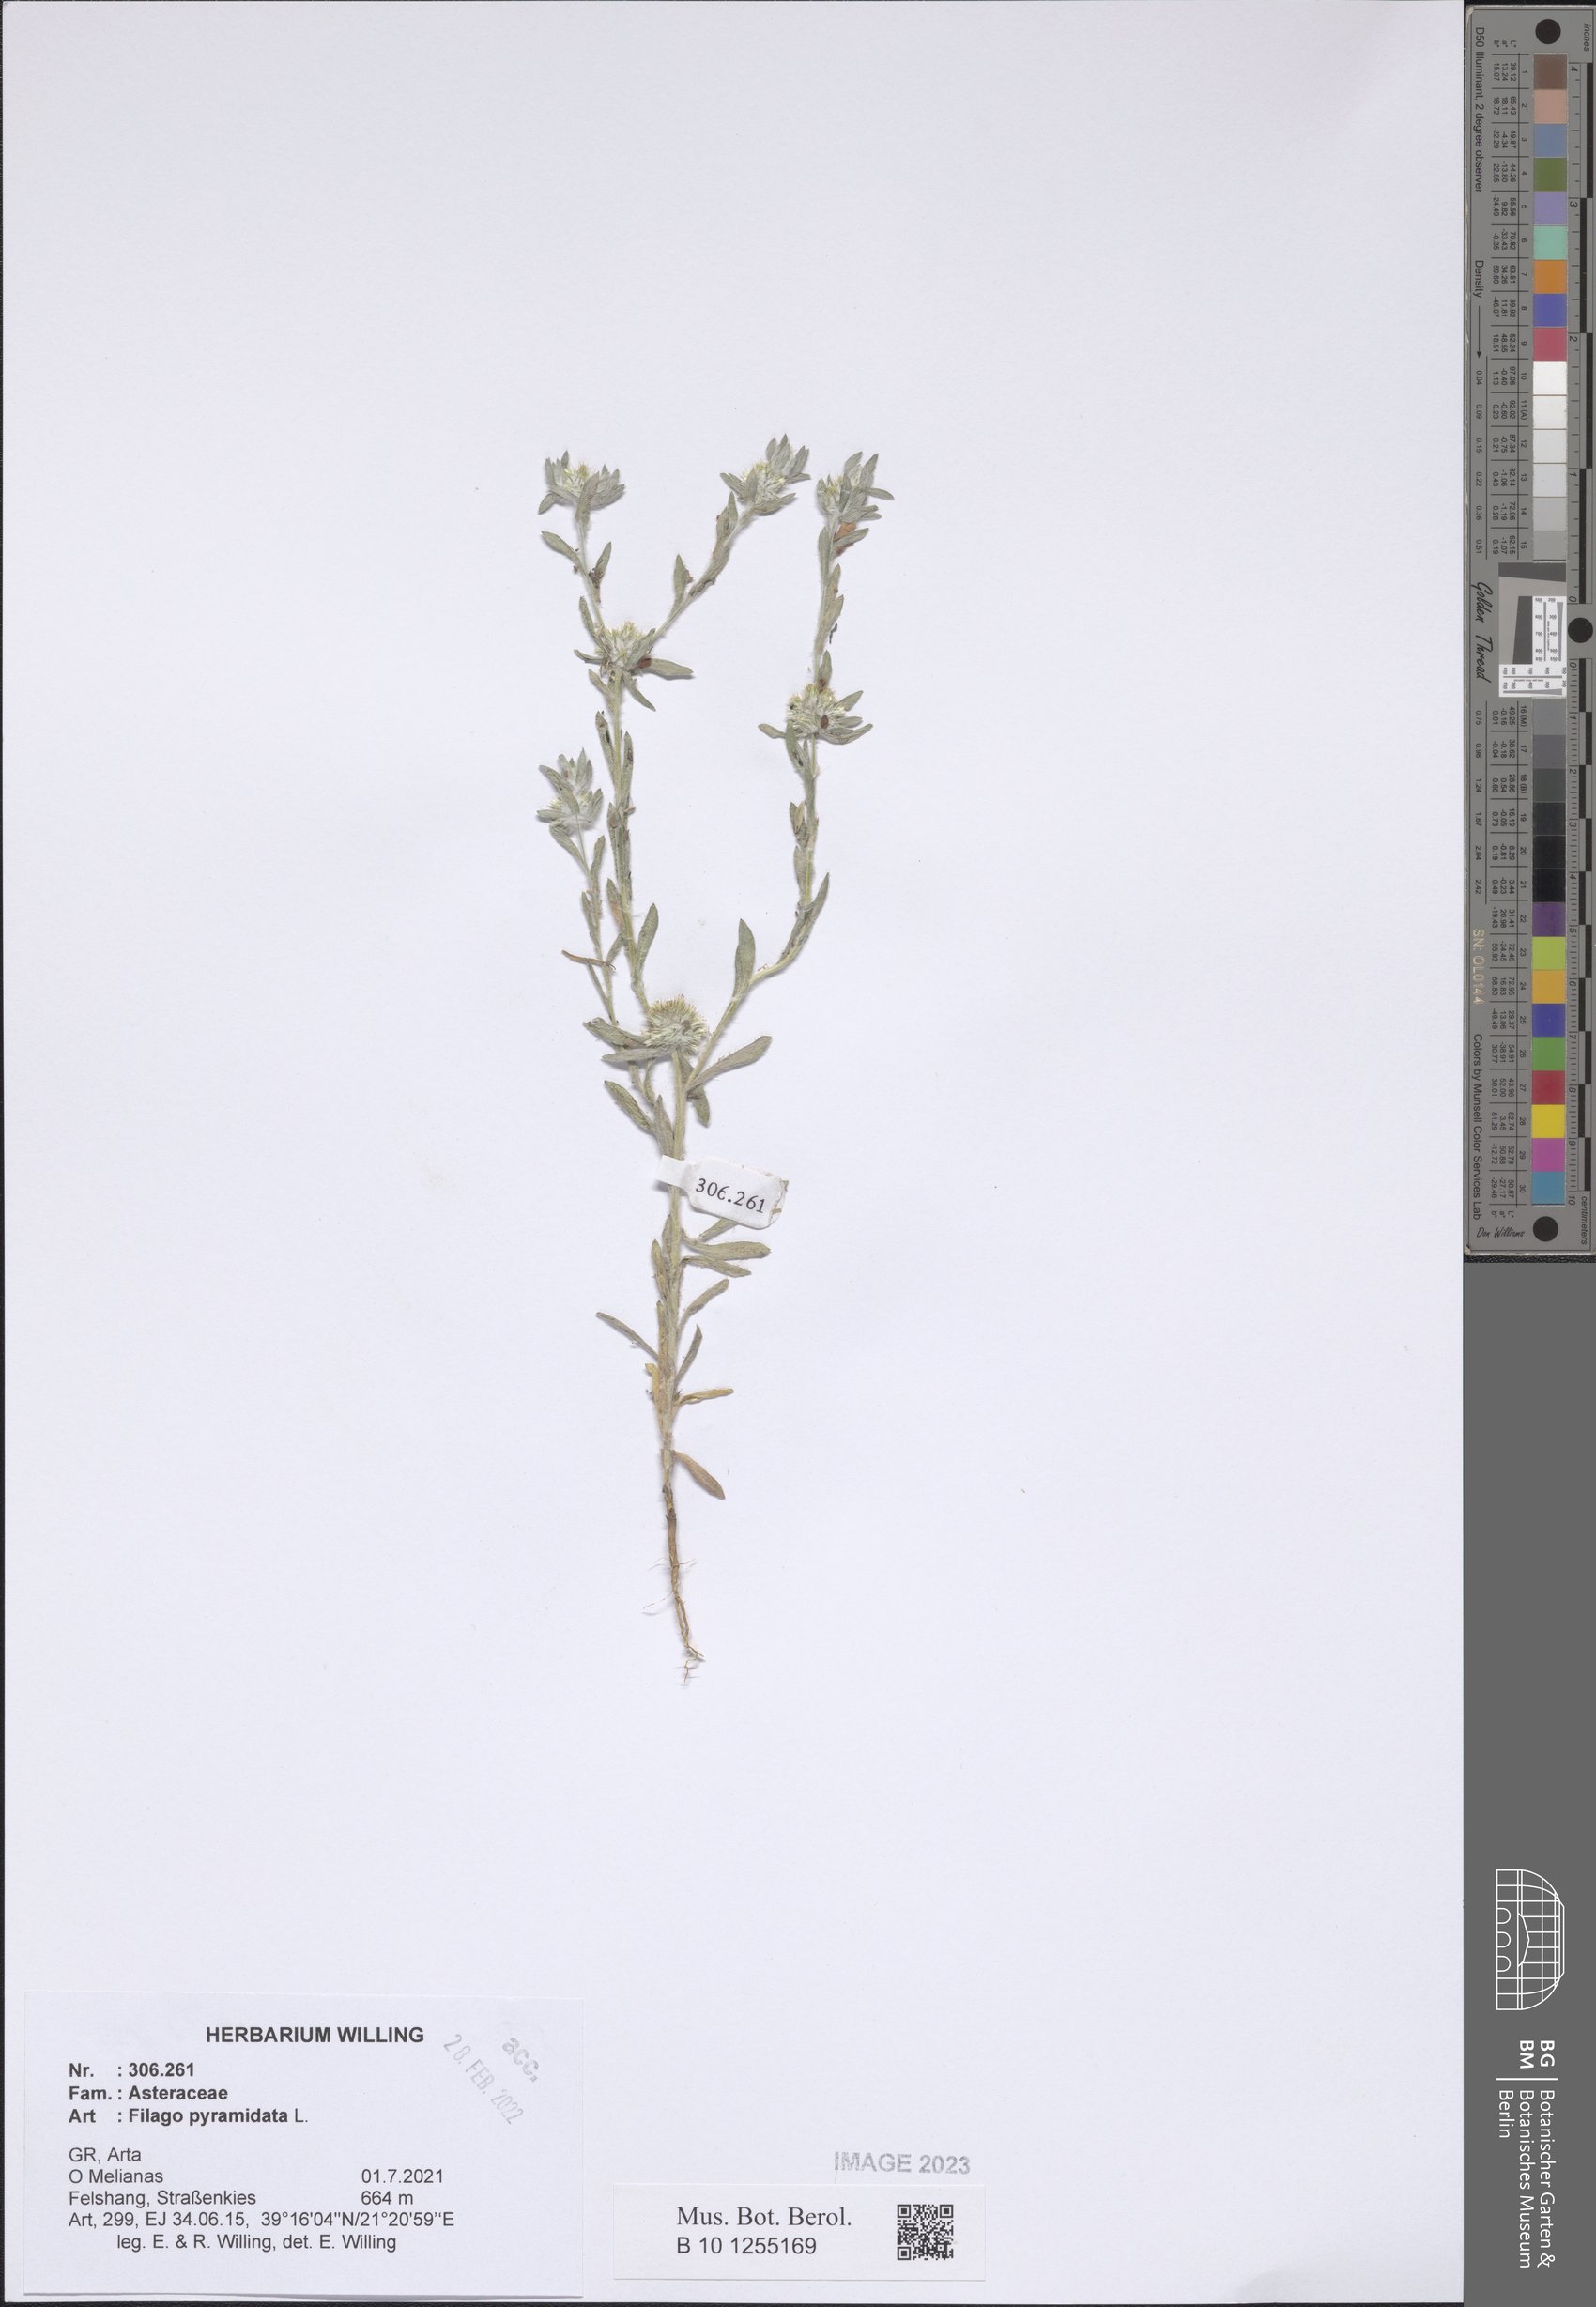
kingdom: Plantae
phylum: Tracheophyta
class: Magnoliopsida
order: Asterales
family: Asteraceae
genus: Filago
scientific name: Filago pyramidata
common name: Broad-leaved cudweed
